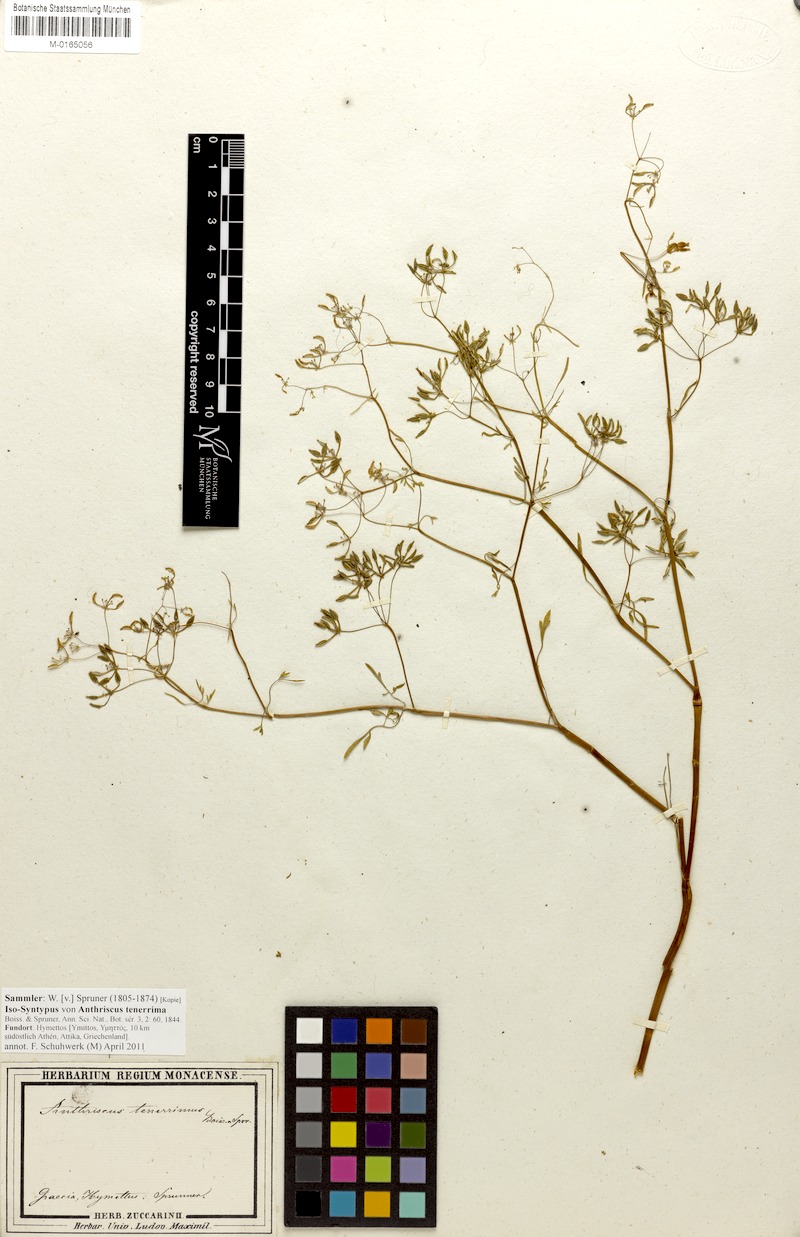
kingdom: Plantae
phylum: Tracheophyta
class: Magnoliopsida
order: Apiales
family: Apiaceae
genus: Anthriscus
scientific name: Anthriscus tenerrima
